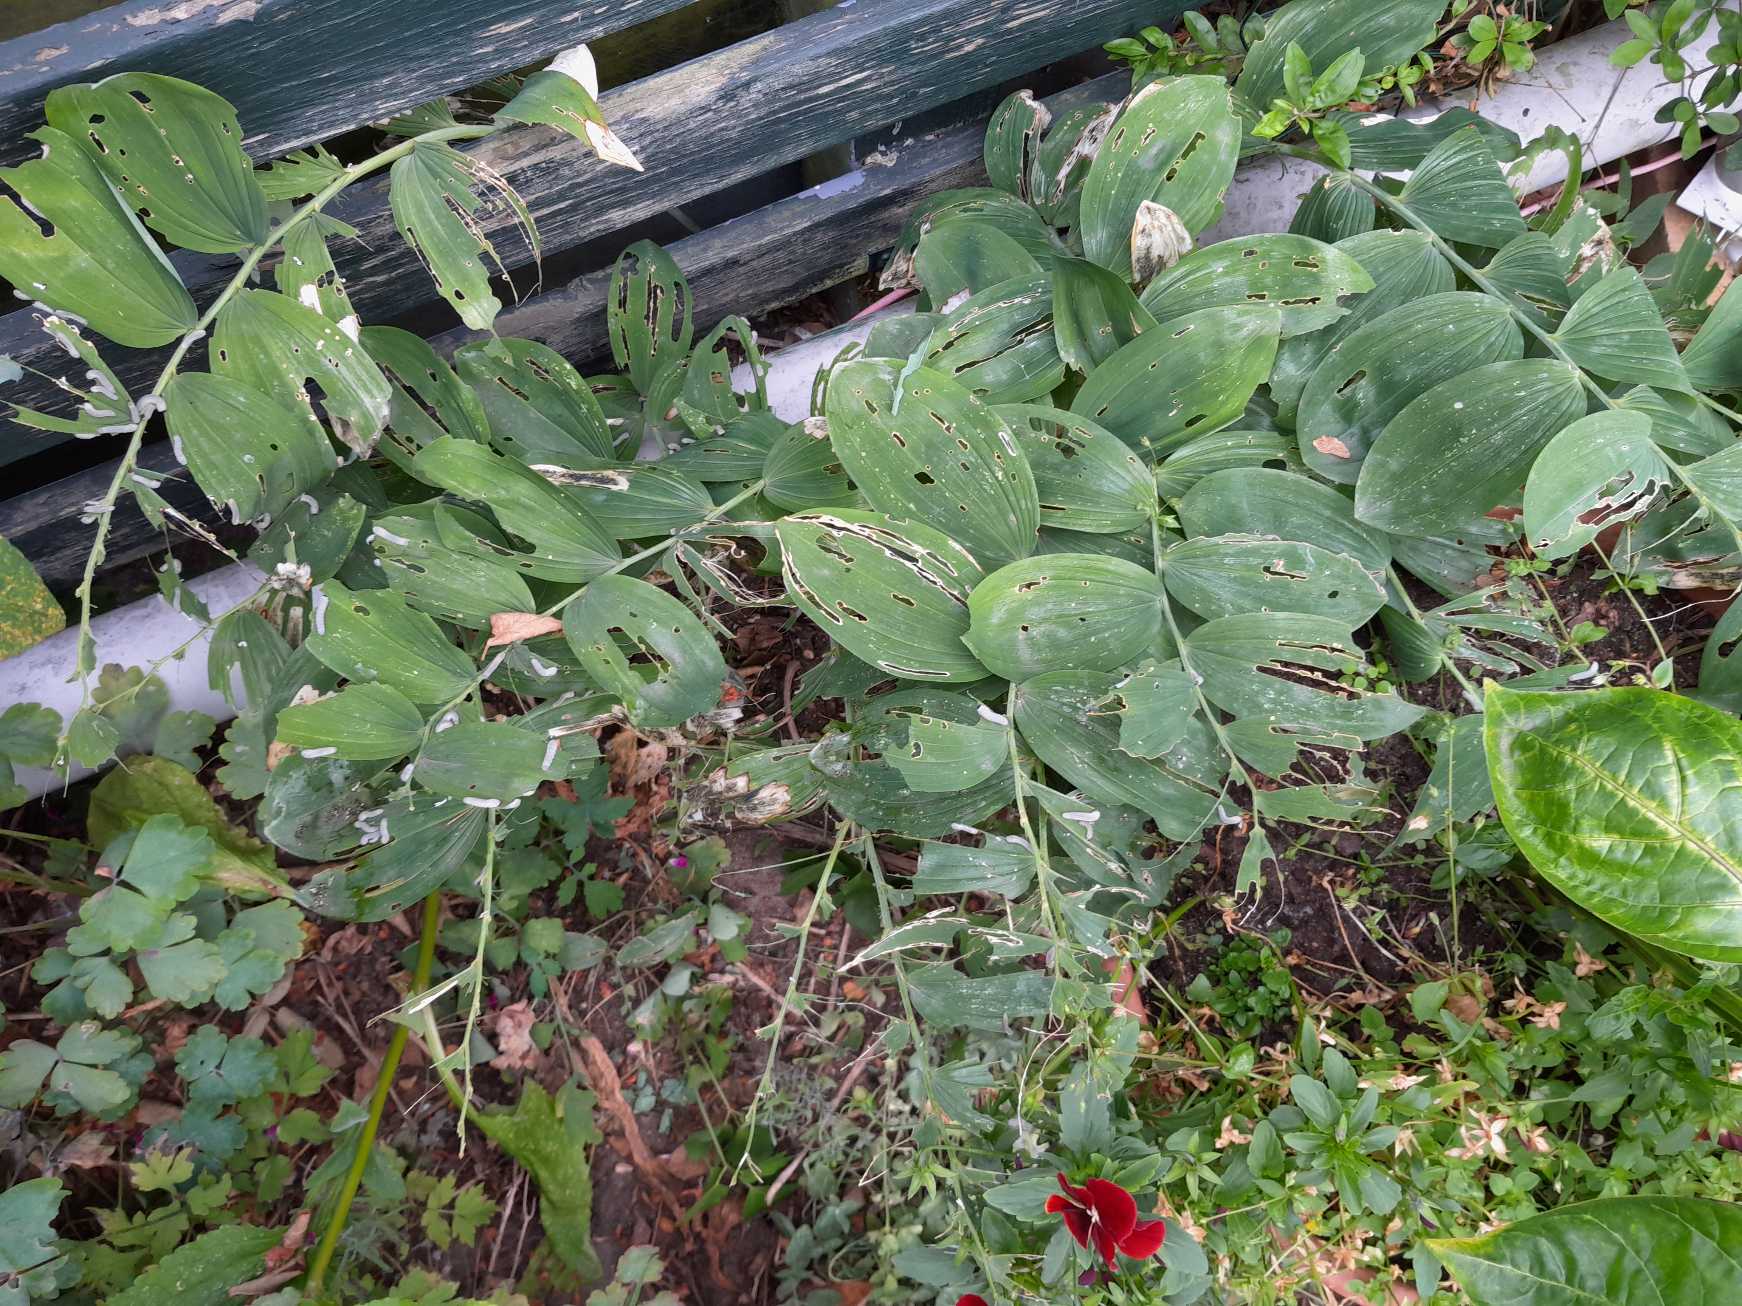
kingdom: Animalia
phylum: Arthropoda
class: Insecta
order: Hymenoptera
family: Tenthredinidae
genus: Phymatocera
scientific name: Phymatocera aterrima
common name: Konvalbladhveps
